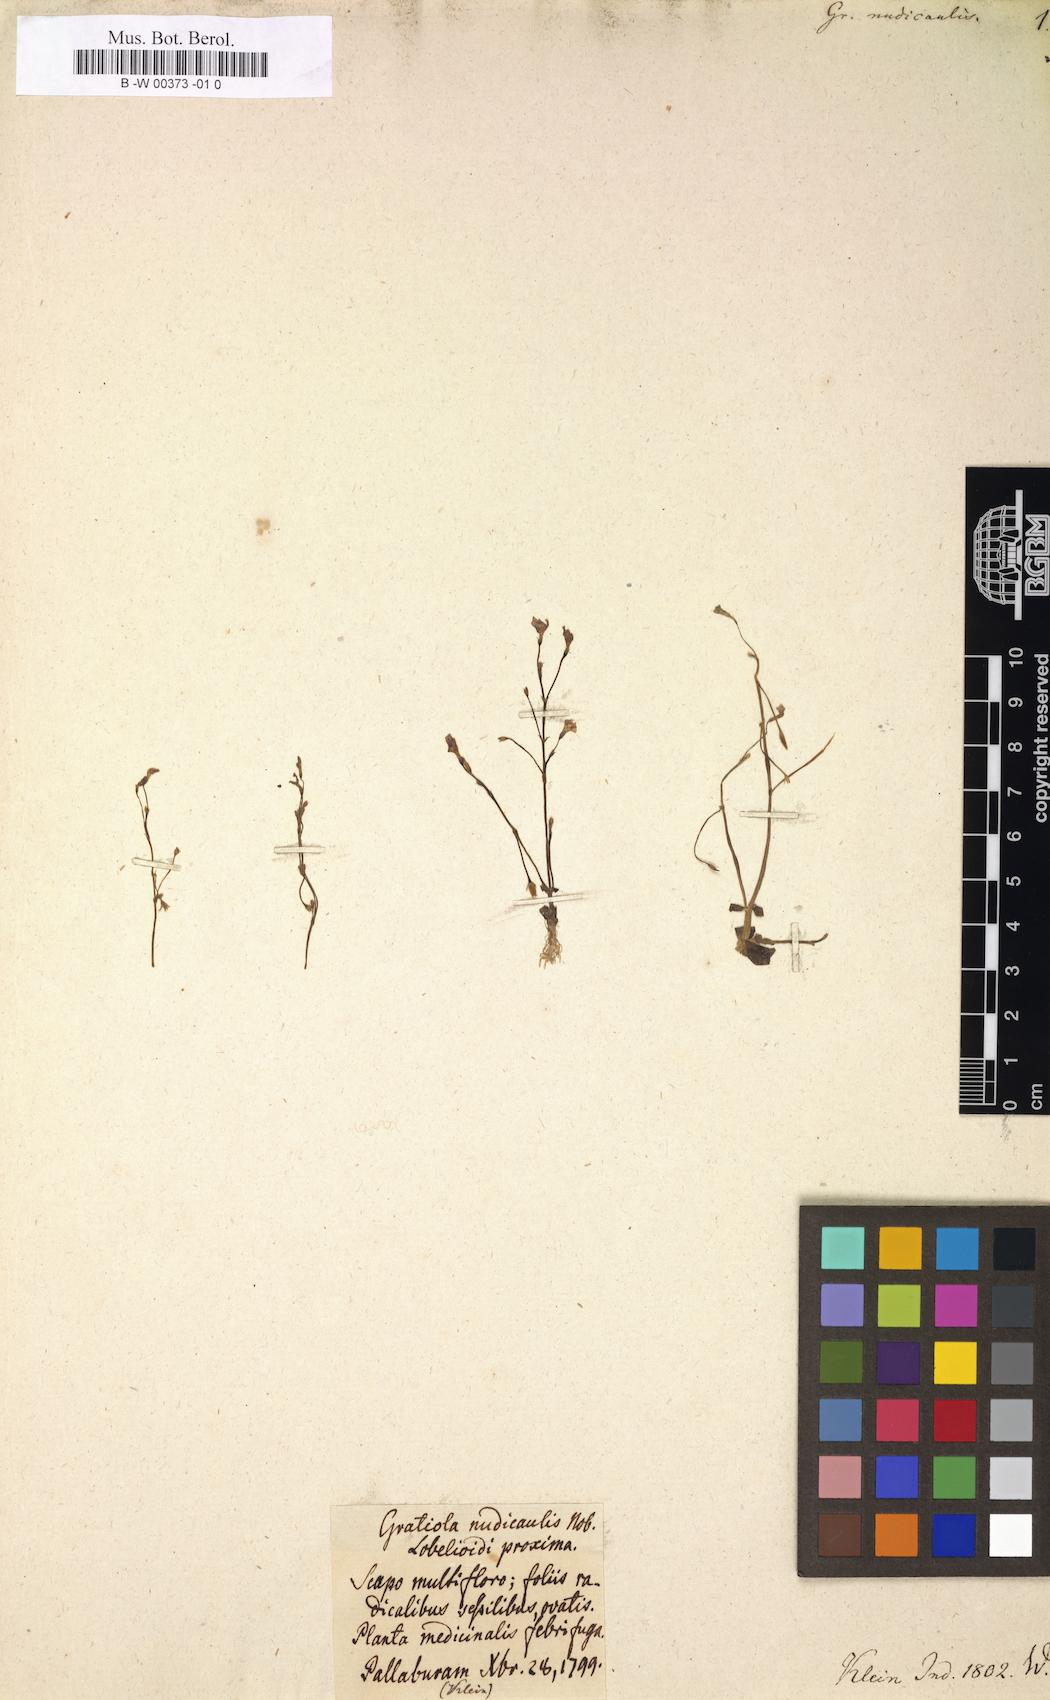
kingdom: Plantae
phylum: Tracheophyta
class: Magnoliopsida
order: Lamiales
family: Plantaginaceae
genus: Dopatrium
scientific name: Dopatrium nudicaule
